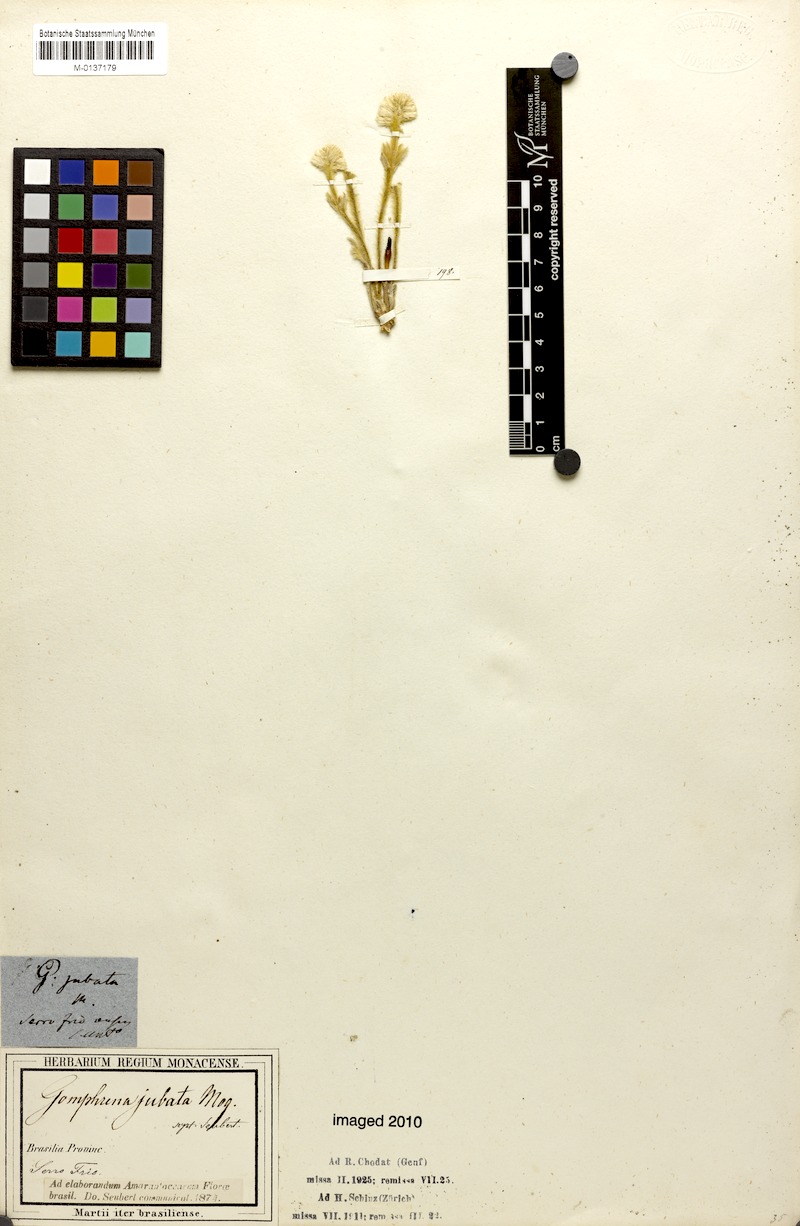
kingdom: Plantae
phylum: Tracheophyta
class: Magnoliopsida
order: Caryophyllales
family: Amaranthaceae
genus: Pfaffia
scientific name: Pfaffia jubata
